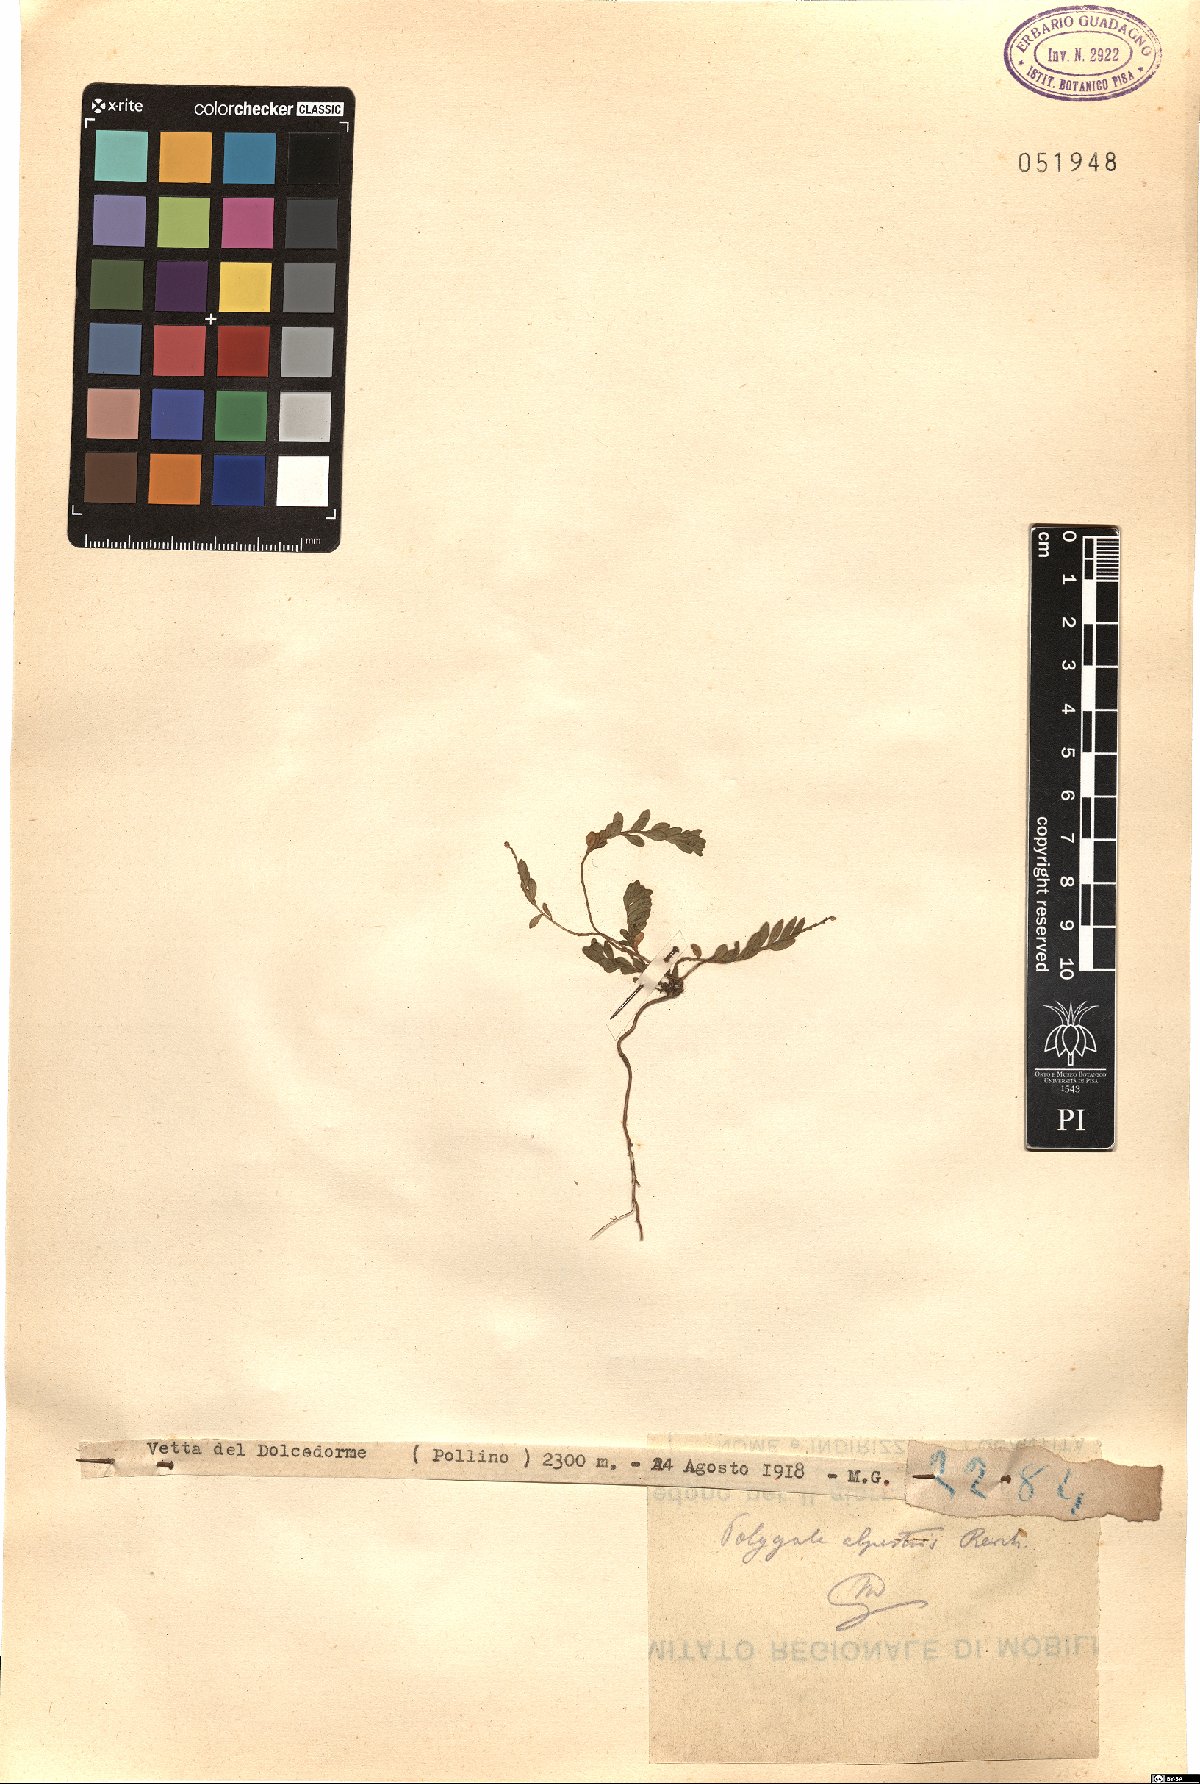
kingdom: Plantae
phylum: Tracheophyta
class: Magnoliopsida
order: Fabales
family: Polygalaceae
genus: Polygala
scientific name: Polygala alpestris
